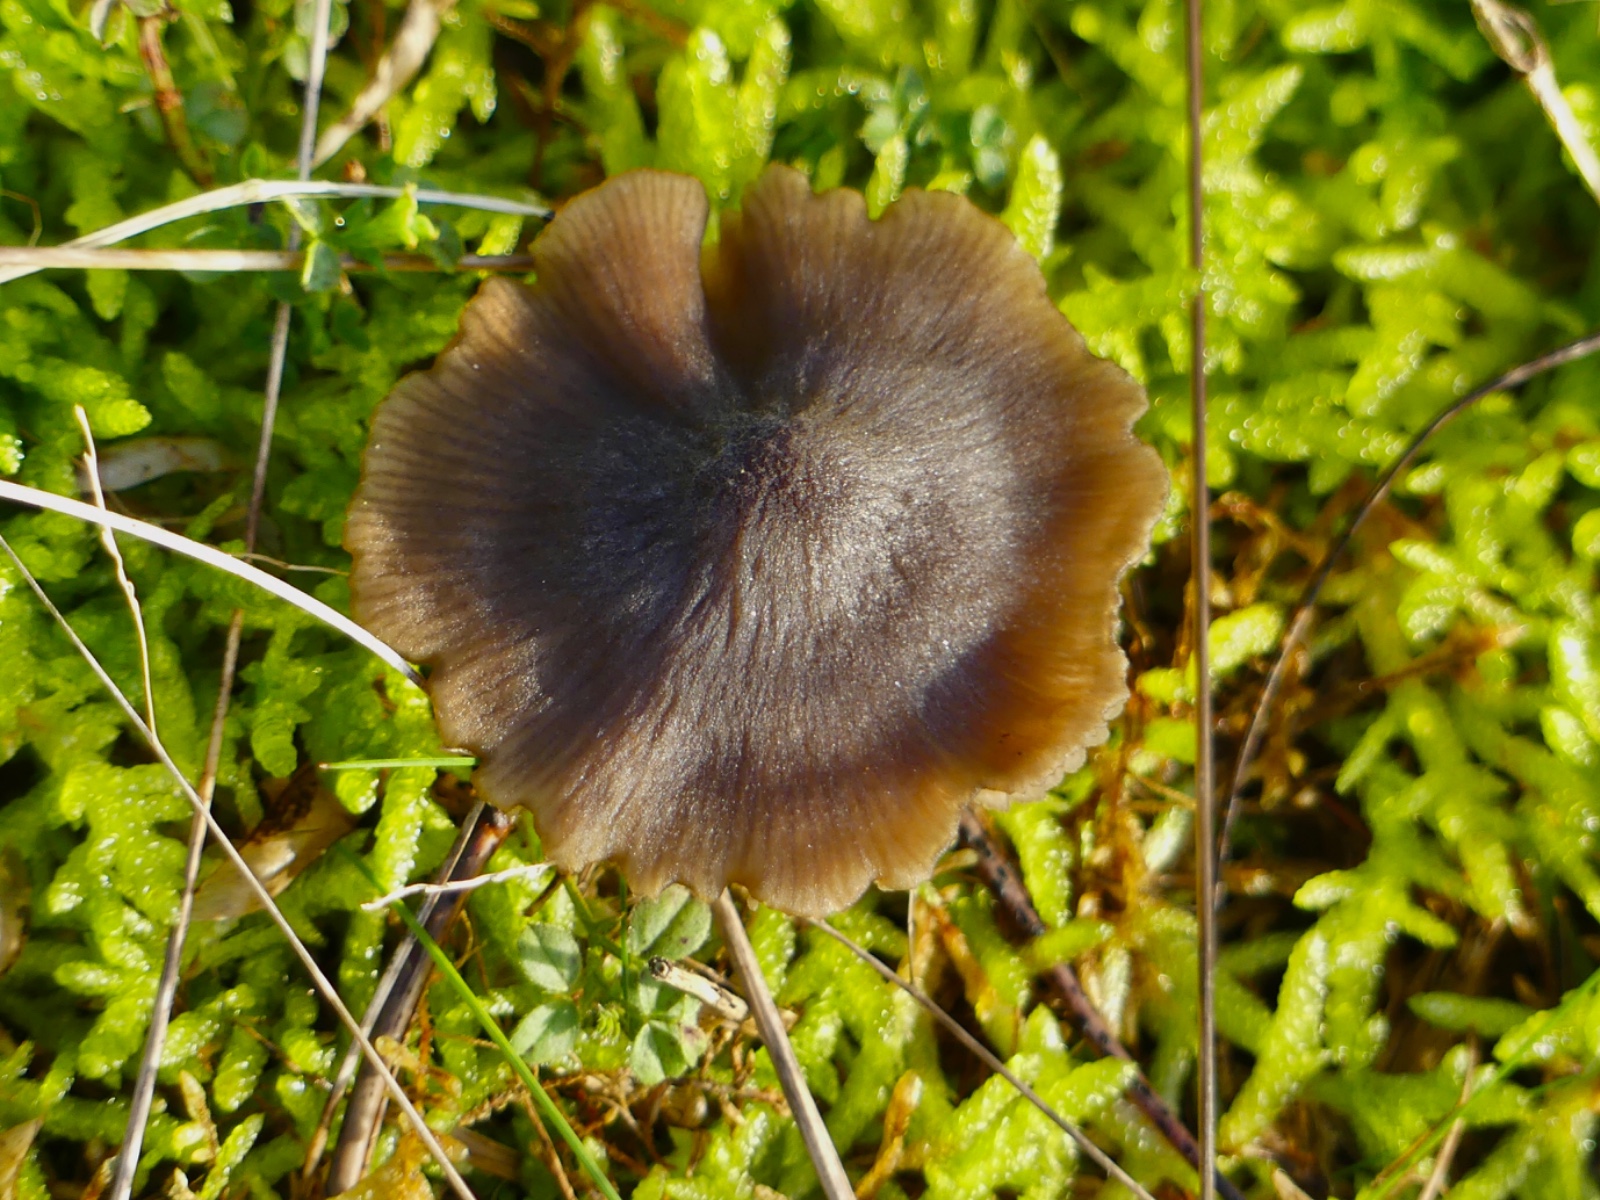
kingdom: Fungi
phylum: Basidiomycota
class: Agaricomycetes
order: Agaricales
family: Entolomataceae
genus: Entoloma
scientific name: Entoloma
